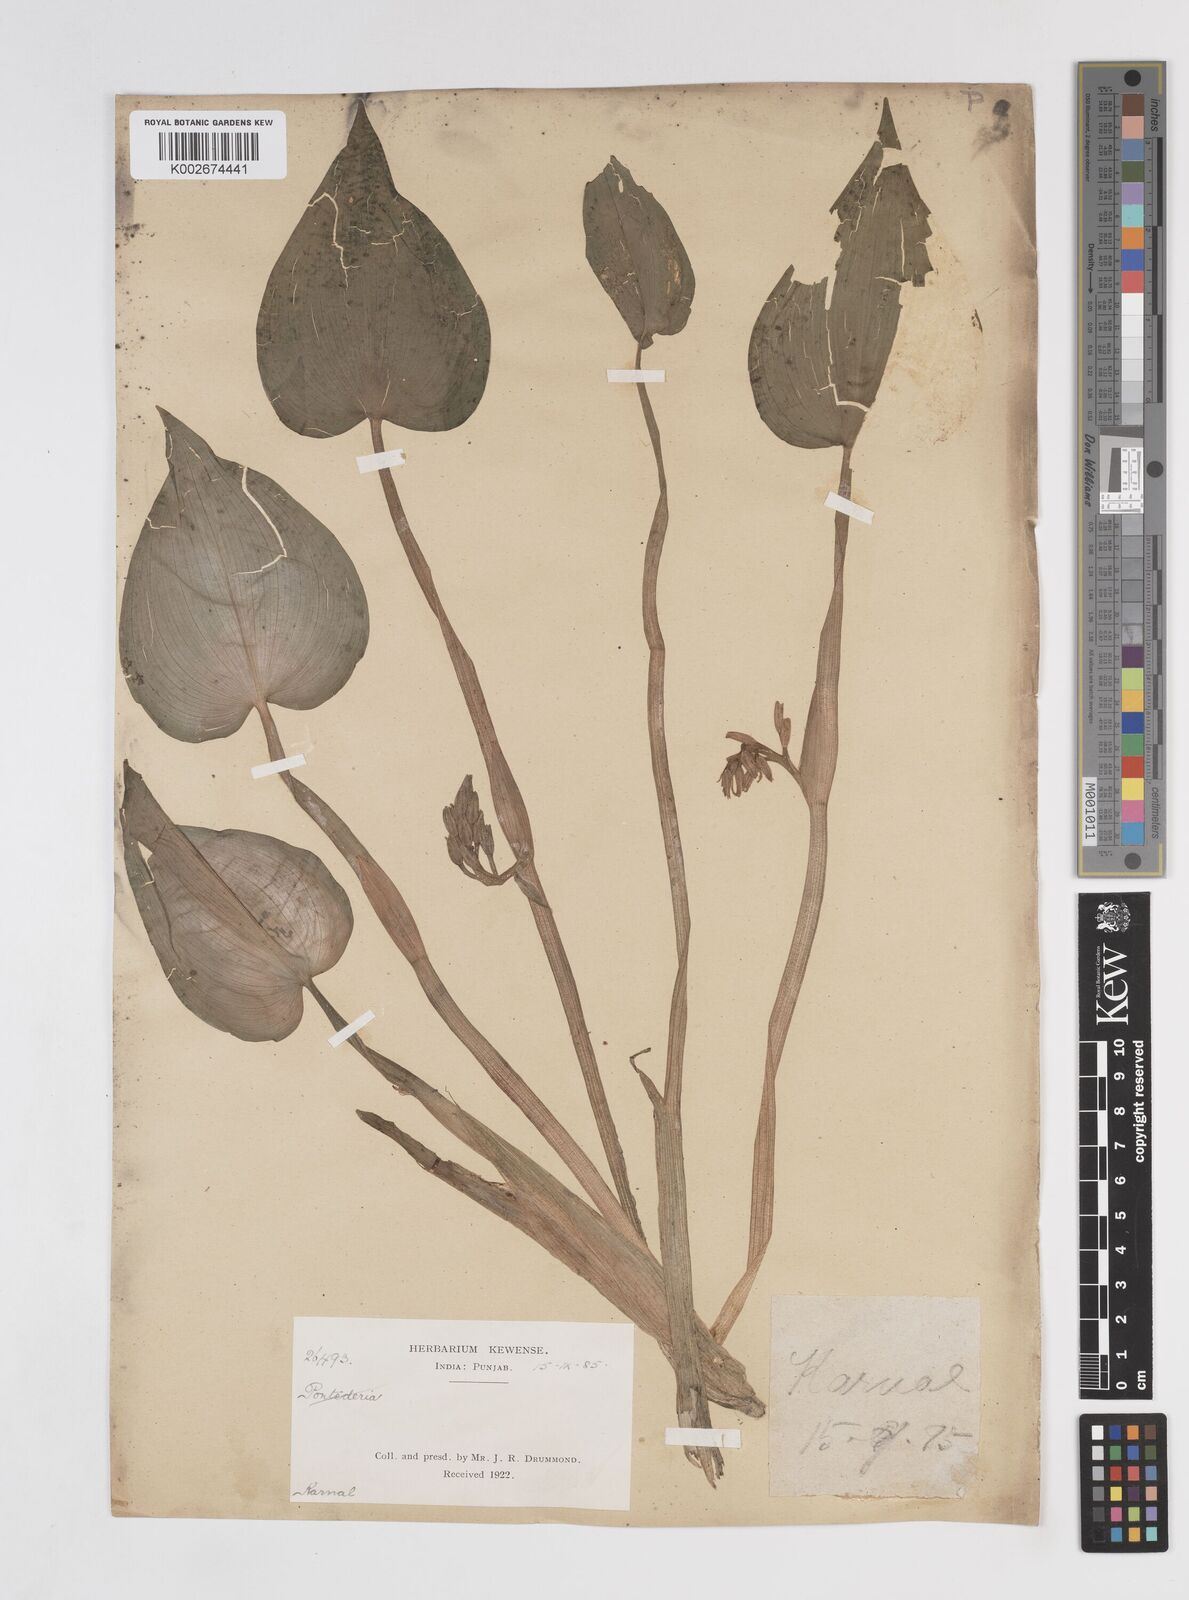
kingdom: Plantae
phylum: Tracheophyta
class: Liliopsida
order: Commelinales
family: Pontederiaceae
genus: Pontederia
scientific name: Pontederia vaginalis
